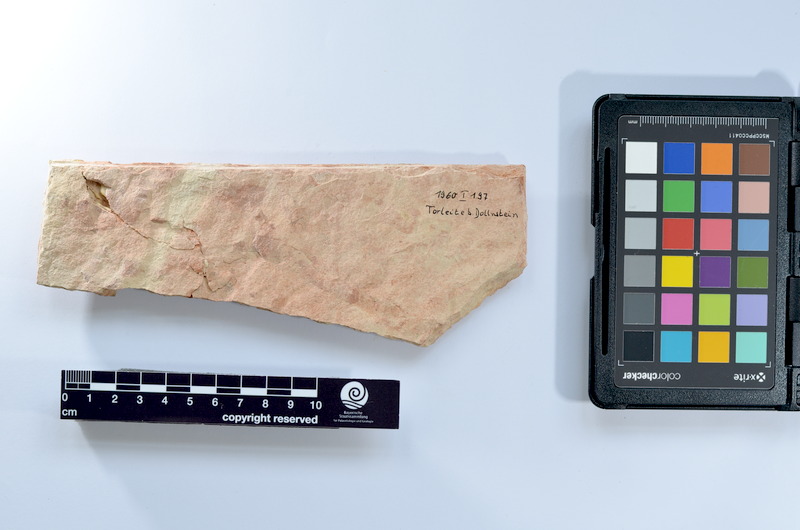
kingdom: Animalia
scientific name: Animalia
